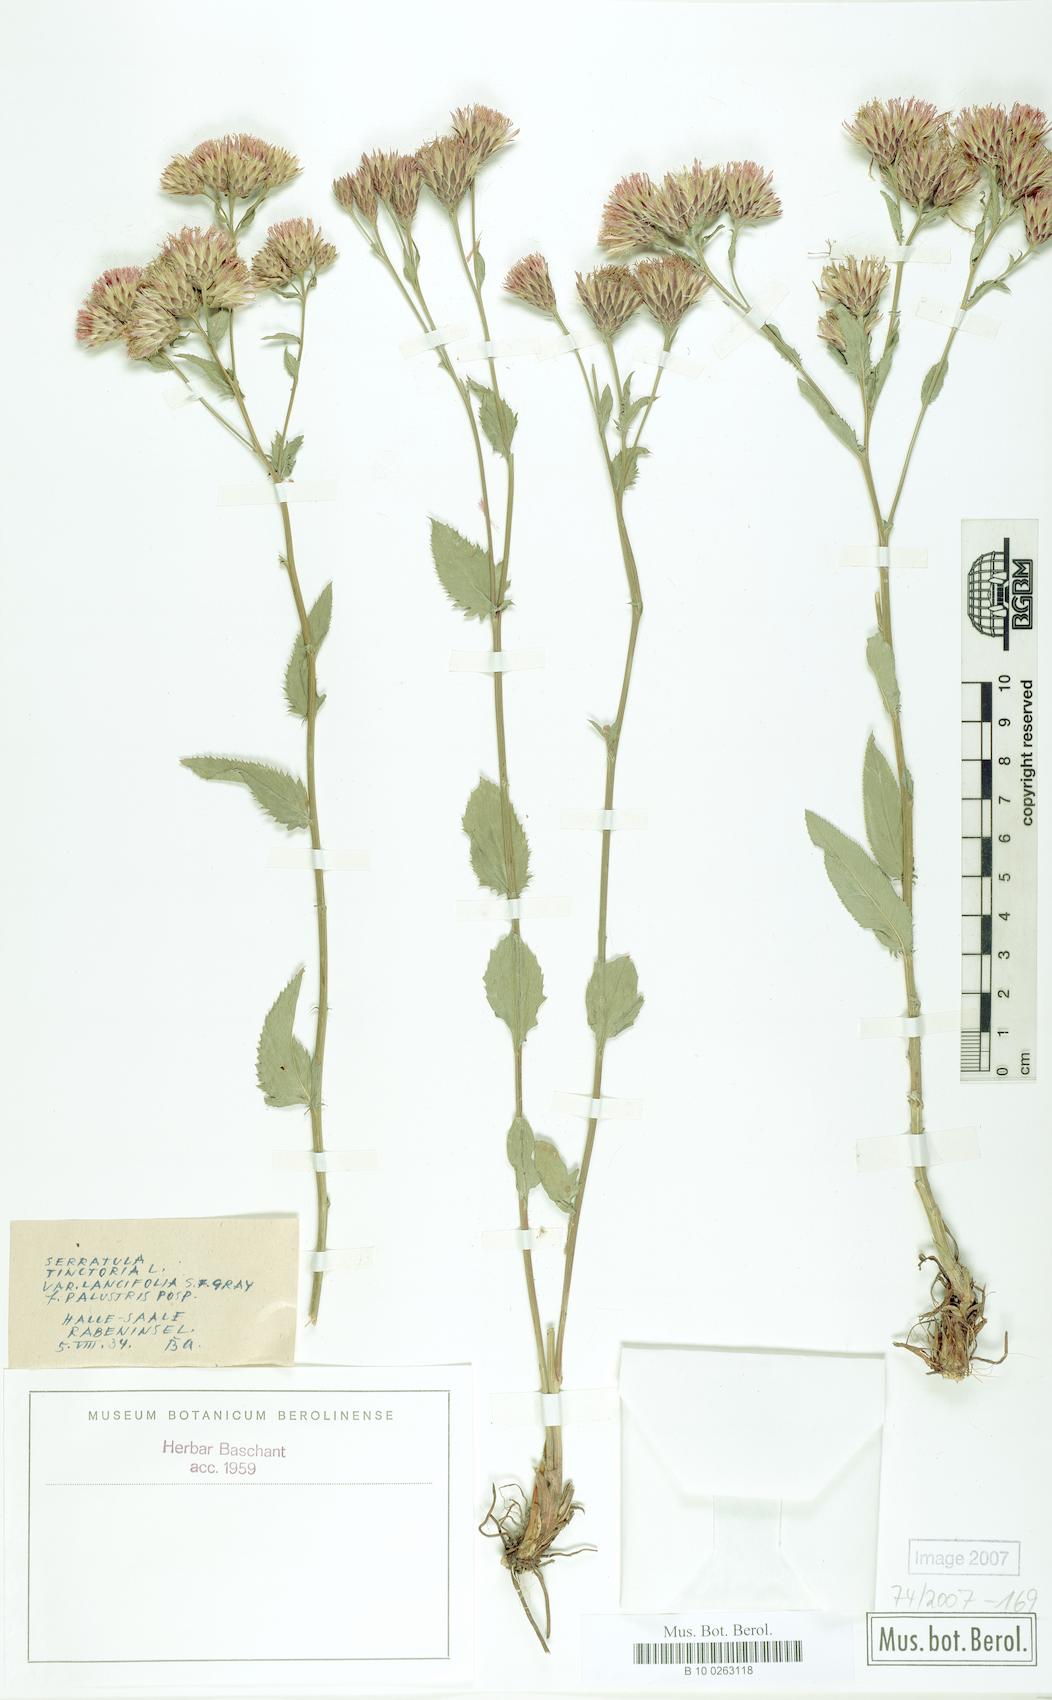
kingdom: Plantae
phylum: Tracheophyta
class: Magnoliopsida
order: Asterales
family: Asteraceae
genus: Serratula
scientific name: Serratula tinctoria
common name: Saw-wort
